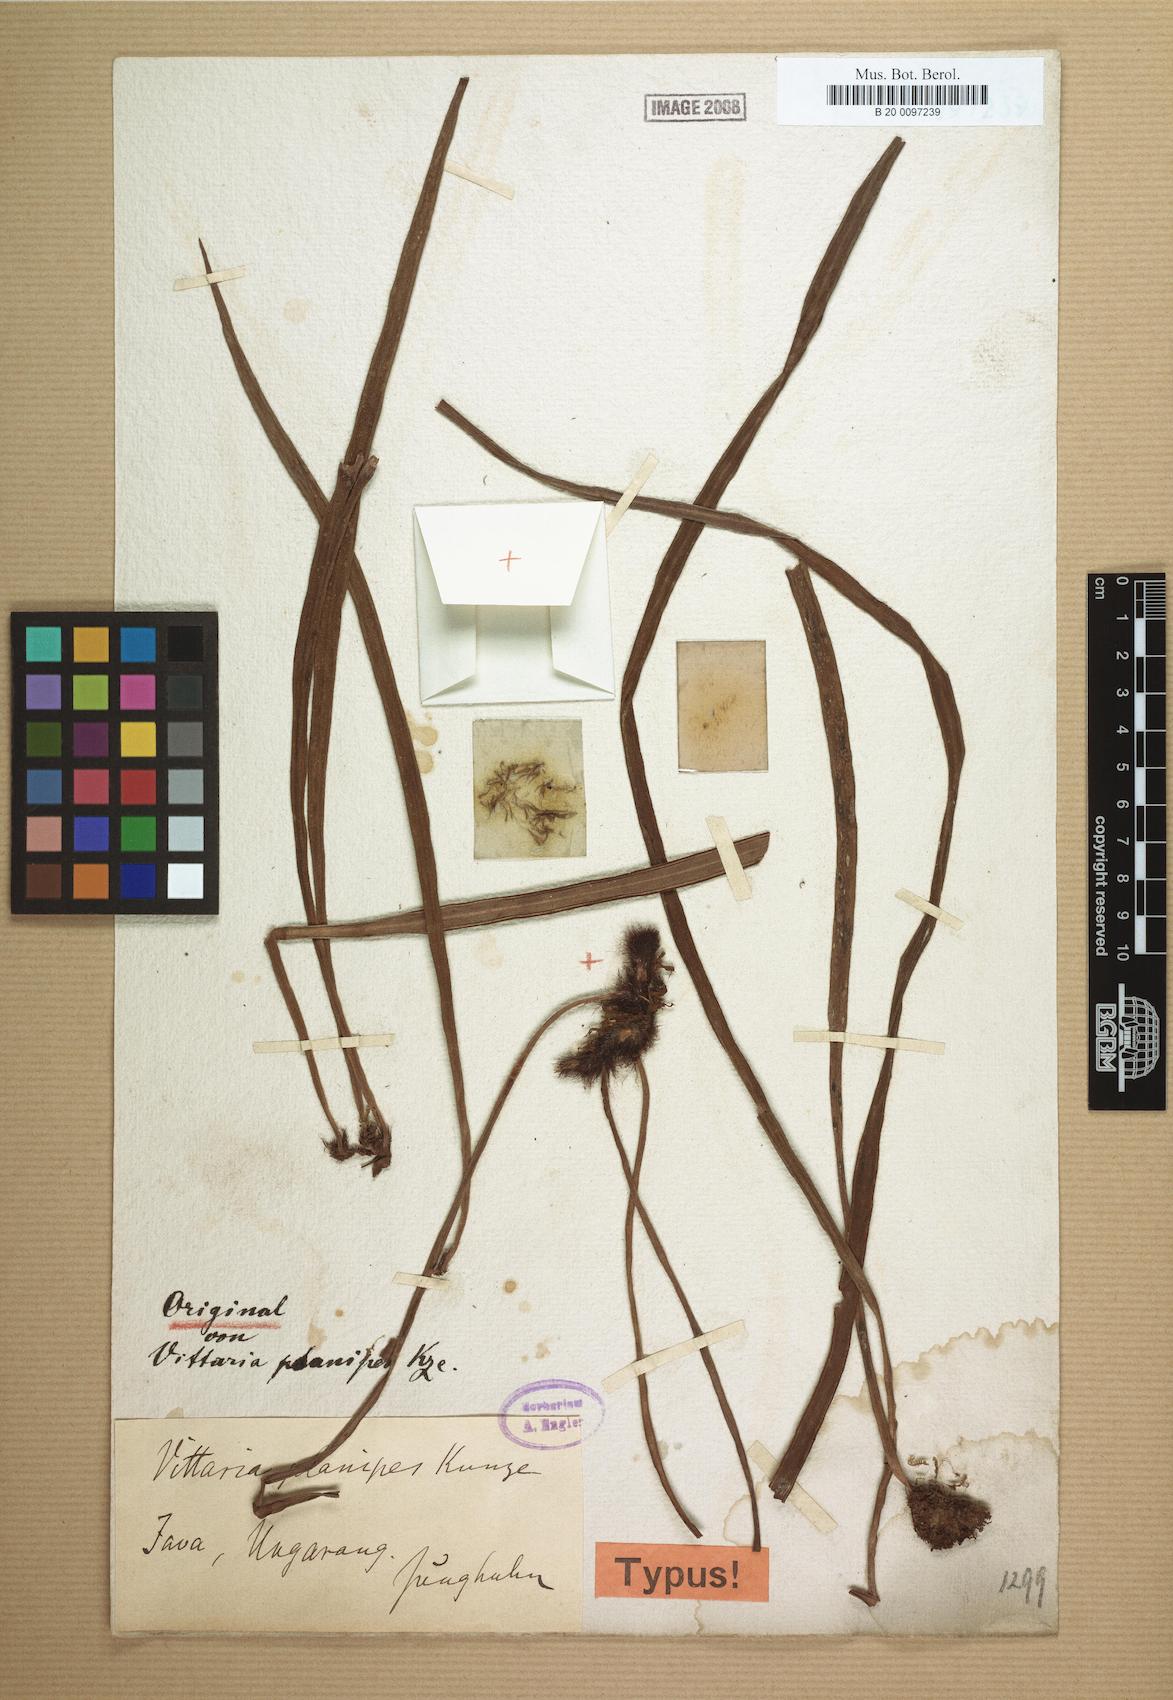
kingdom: Plantae
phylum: Tracheophyta
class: Polypodiopsida
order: Polypodiales
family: Pteridaceae
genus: Haplopteris
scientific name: Haplopteris zosterifolia
